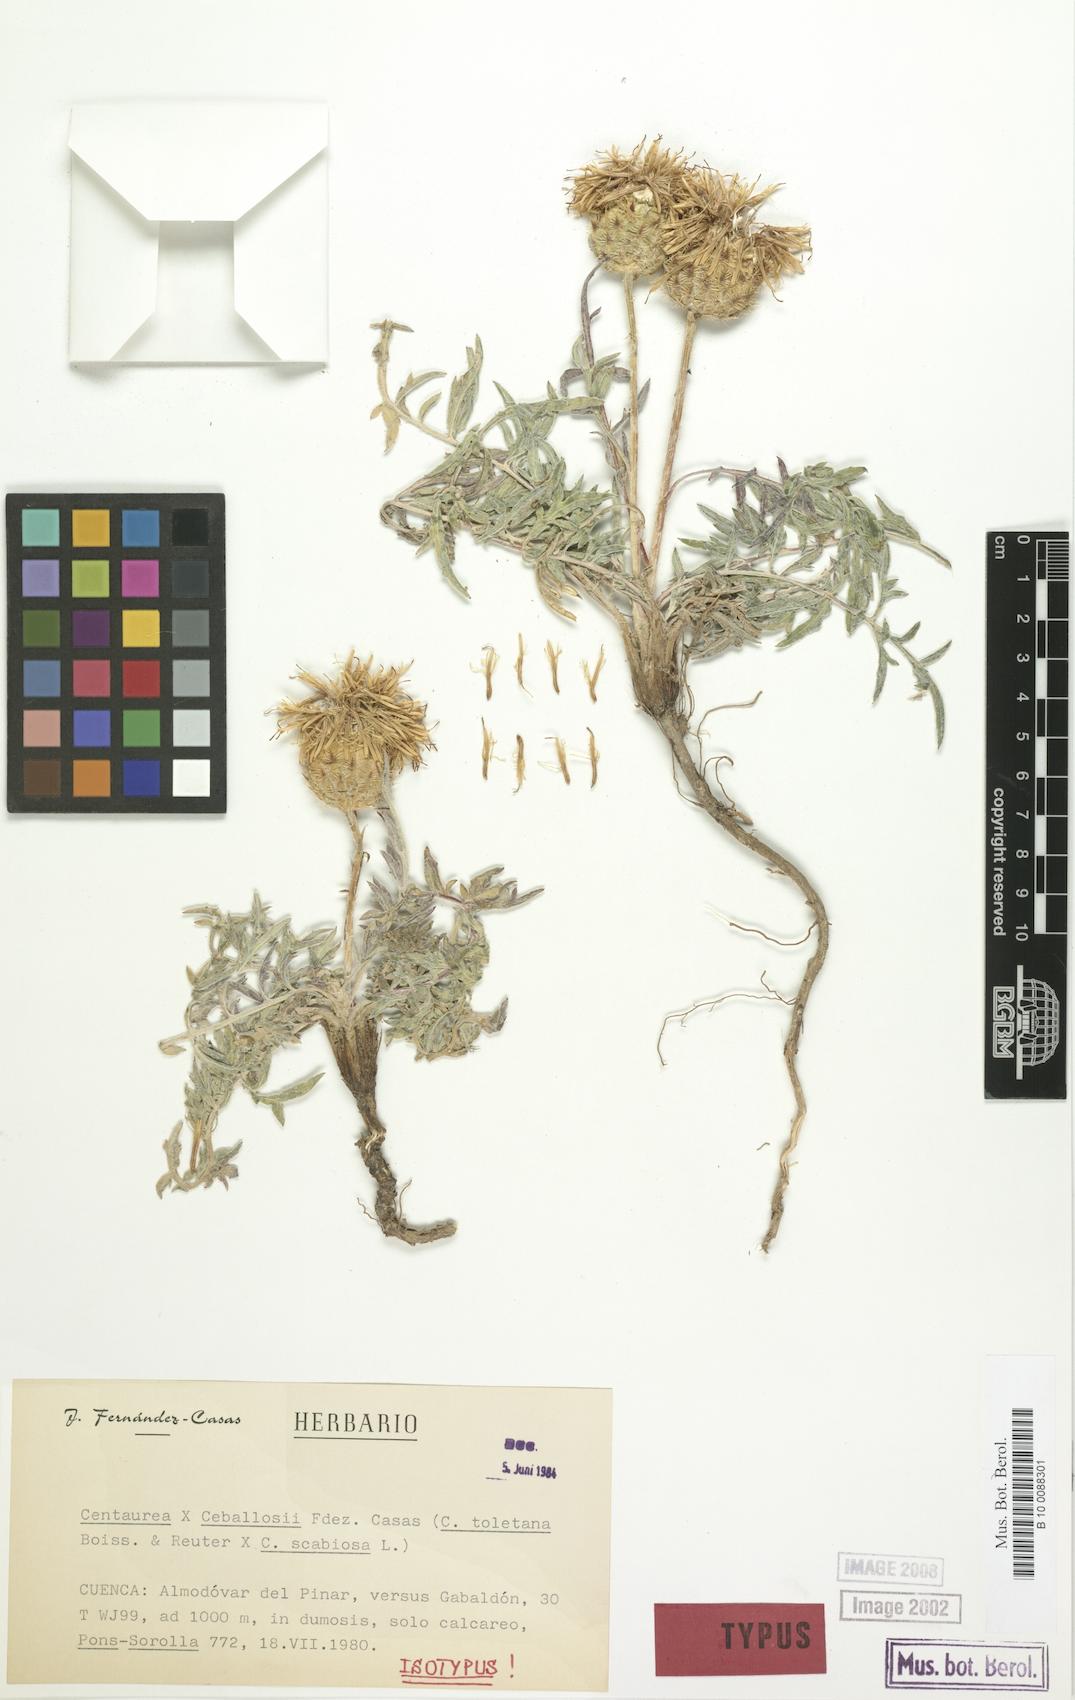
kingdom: Plantae
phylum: Tracheophyta
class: Magnoliopsida
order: Asterales
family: Asteraceae
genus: Centaurea
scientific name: Centaurea ceballosii
